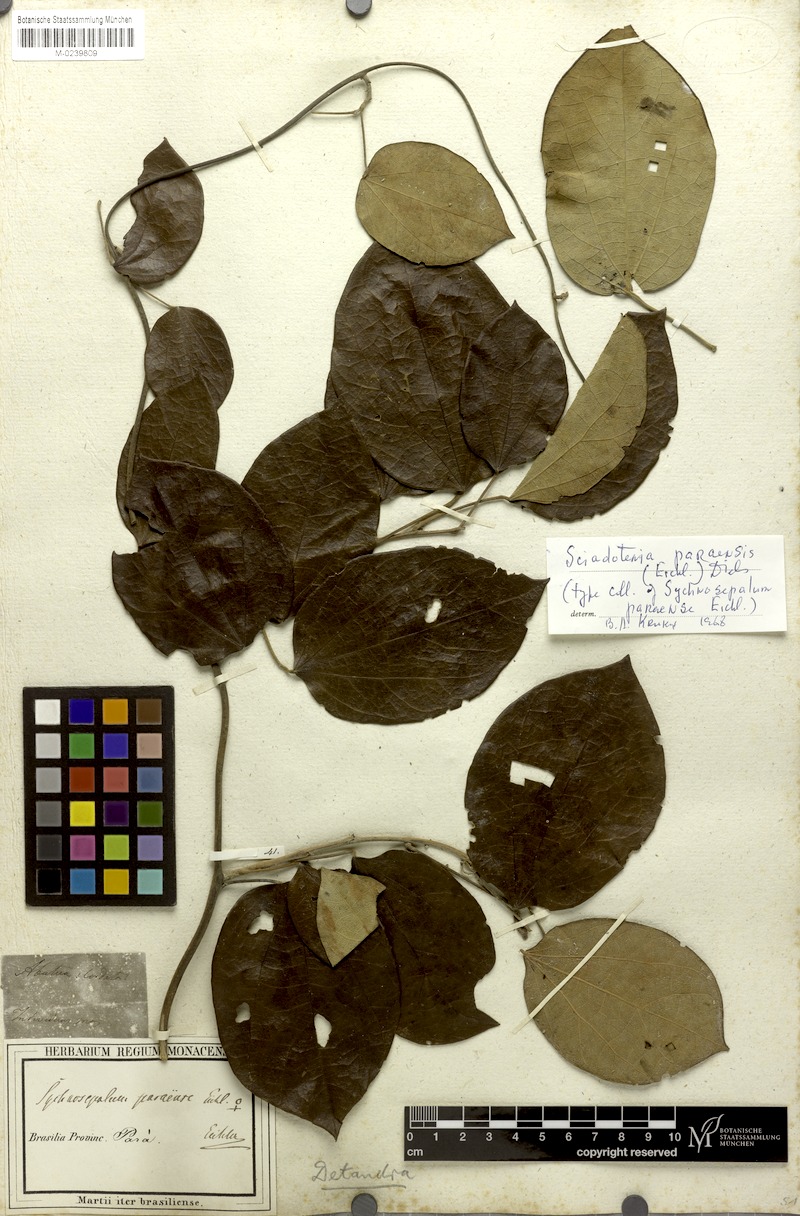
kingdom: Plantae
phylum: Tracheophyta
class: Magnoliopsida
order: Ranunculales
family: Menispermaceae
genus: Sciadotenia
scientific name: Sciadotenia paraensis
